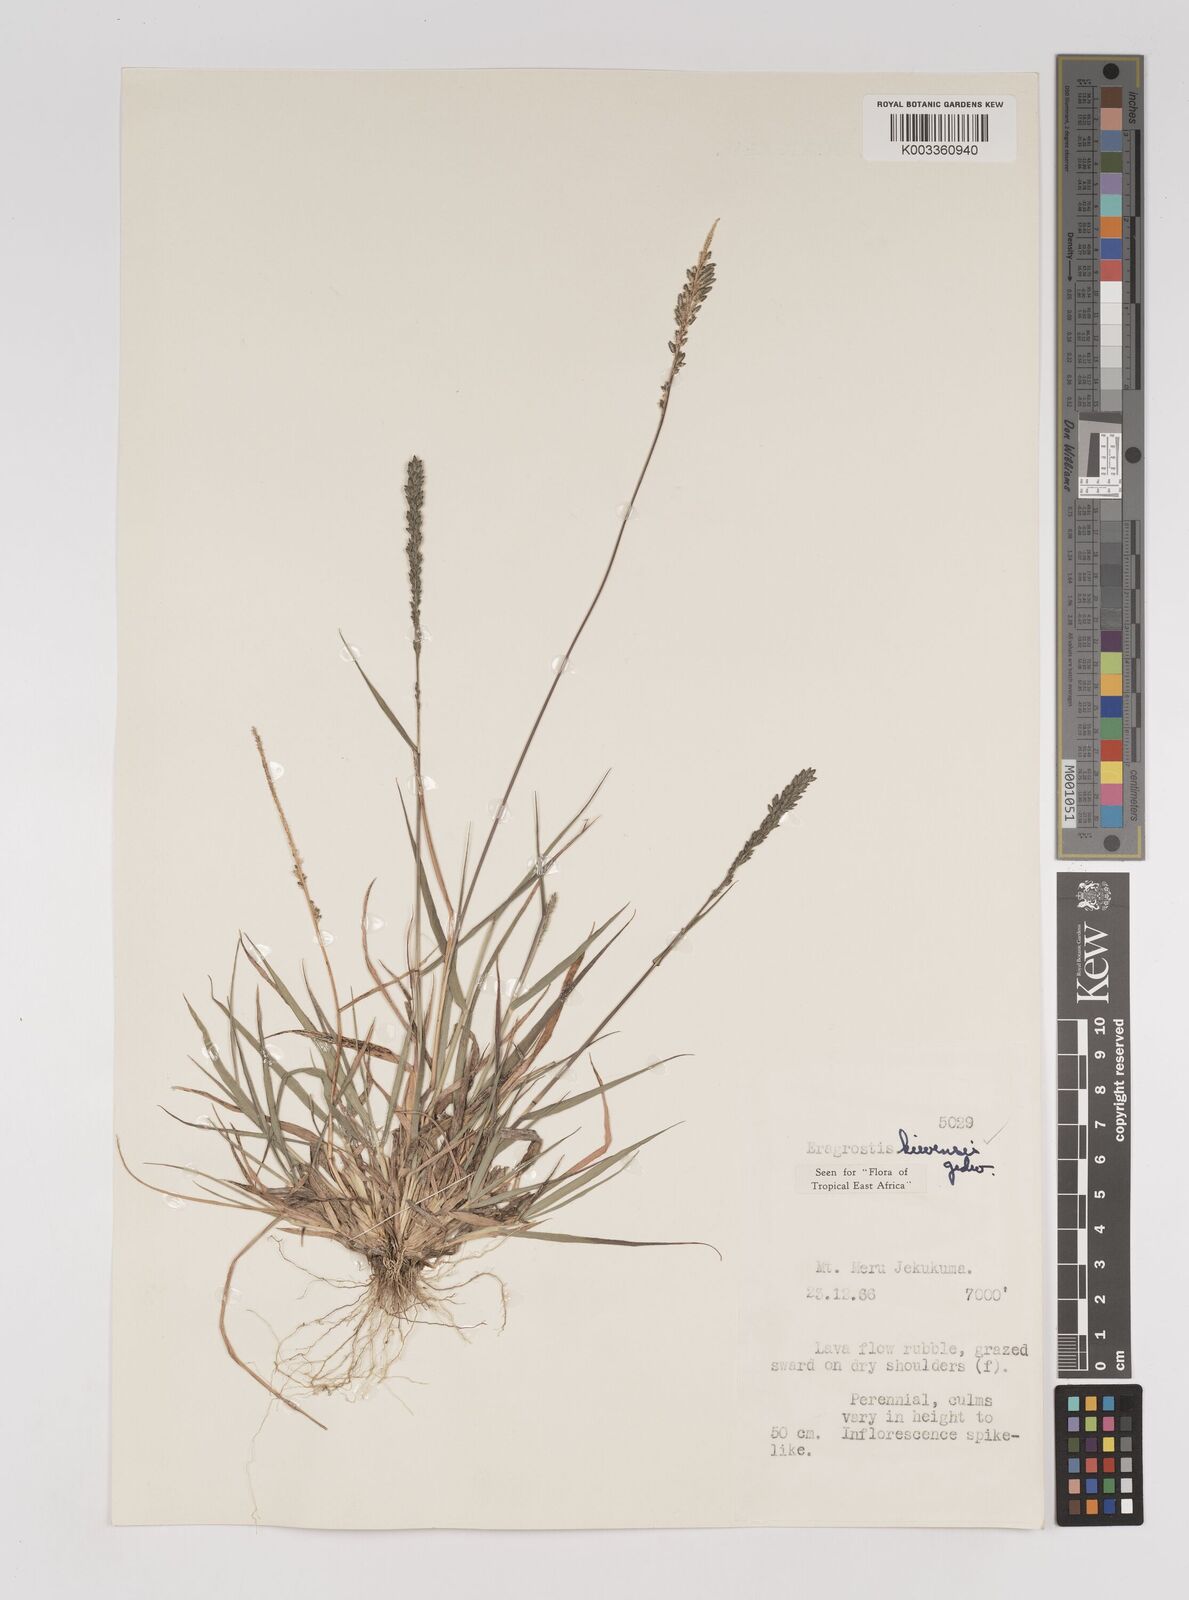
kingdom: Plantae
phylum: Tracheophyta
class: Liliopsida
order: Poales
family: Poaceae
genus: Eragrostis
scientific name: Eragrostis schweinfurthii
